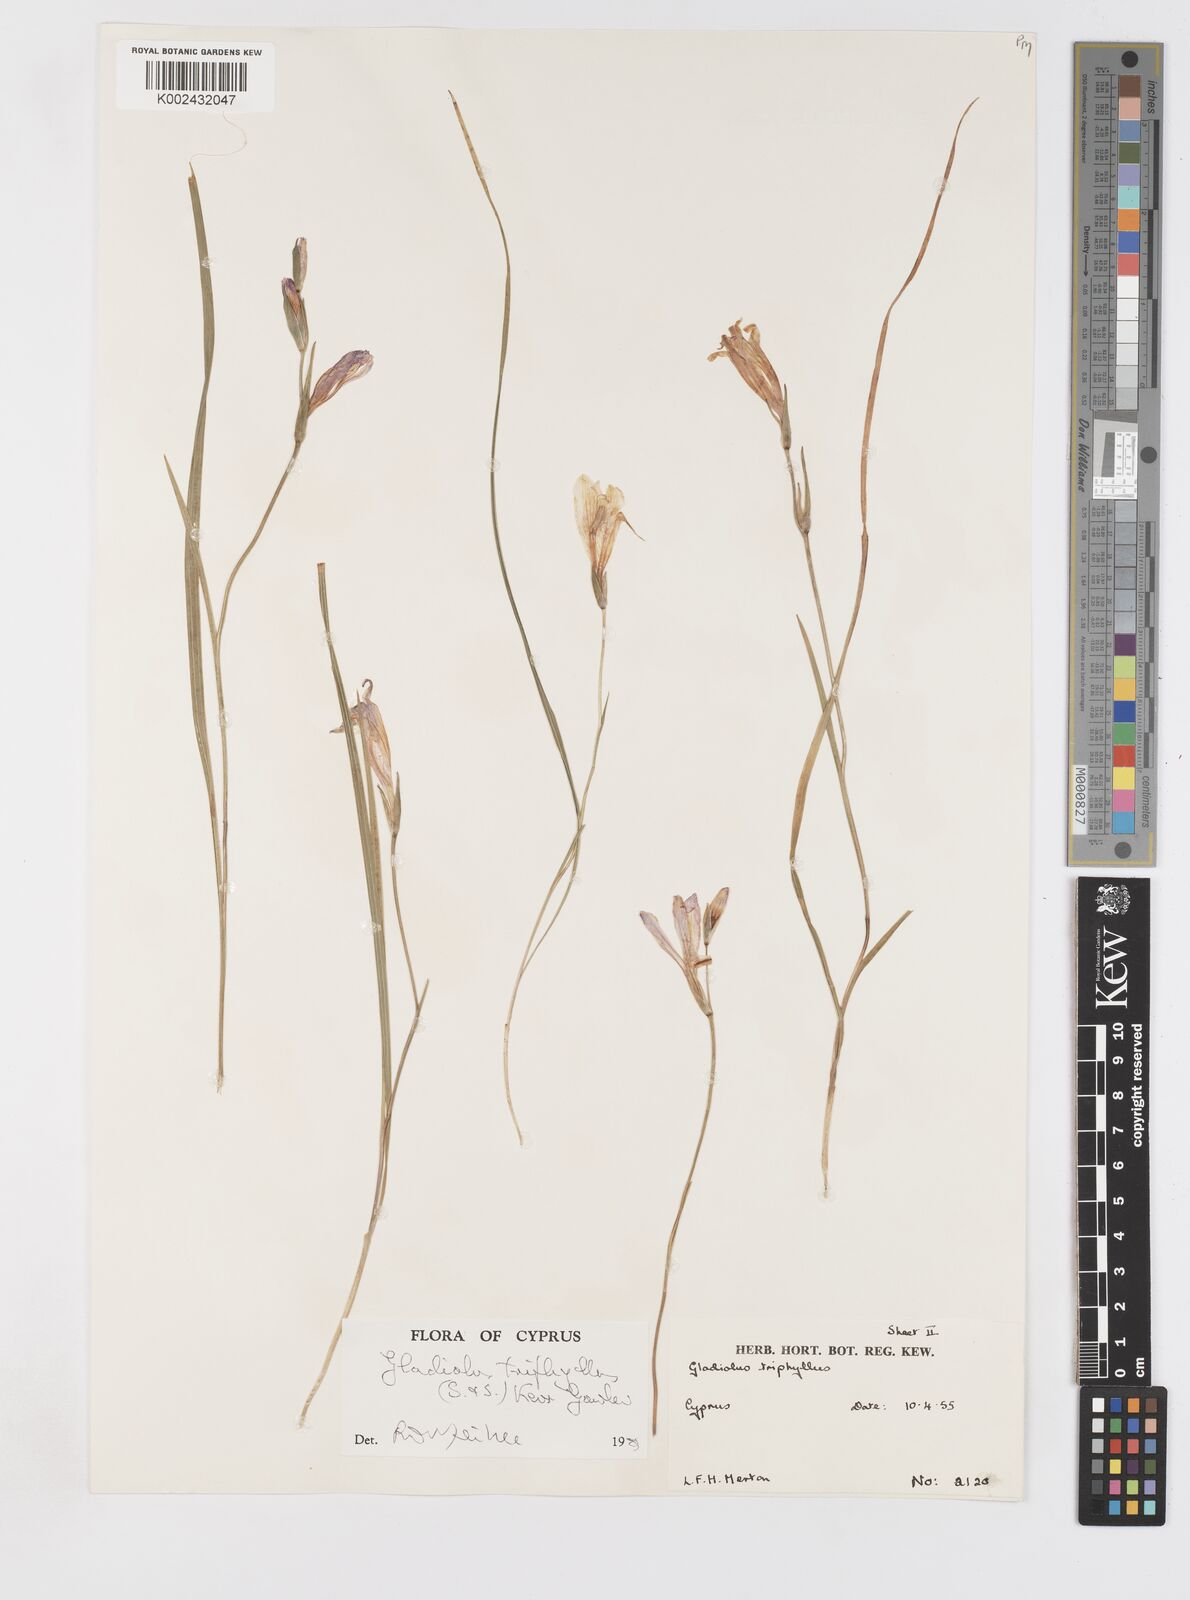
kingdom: Plantae
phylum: Tracheophyta
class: Liliopsida
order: Asparagales
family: Iridaceae
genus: Gladiolus
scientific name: Gladiolus triphyllus
